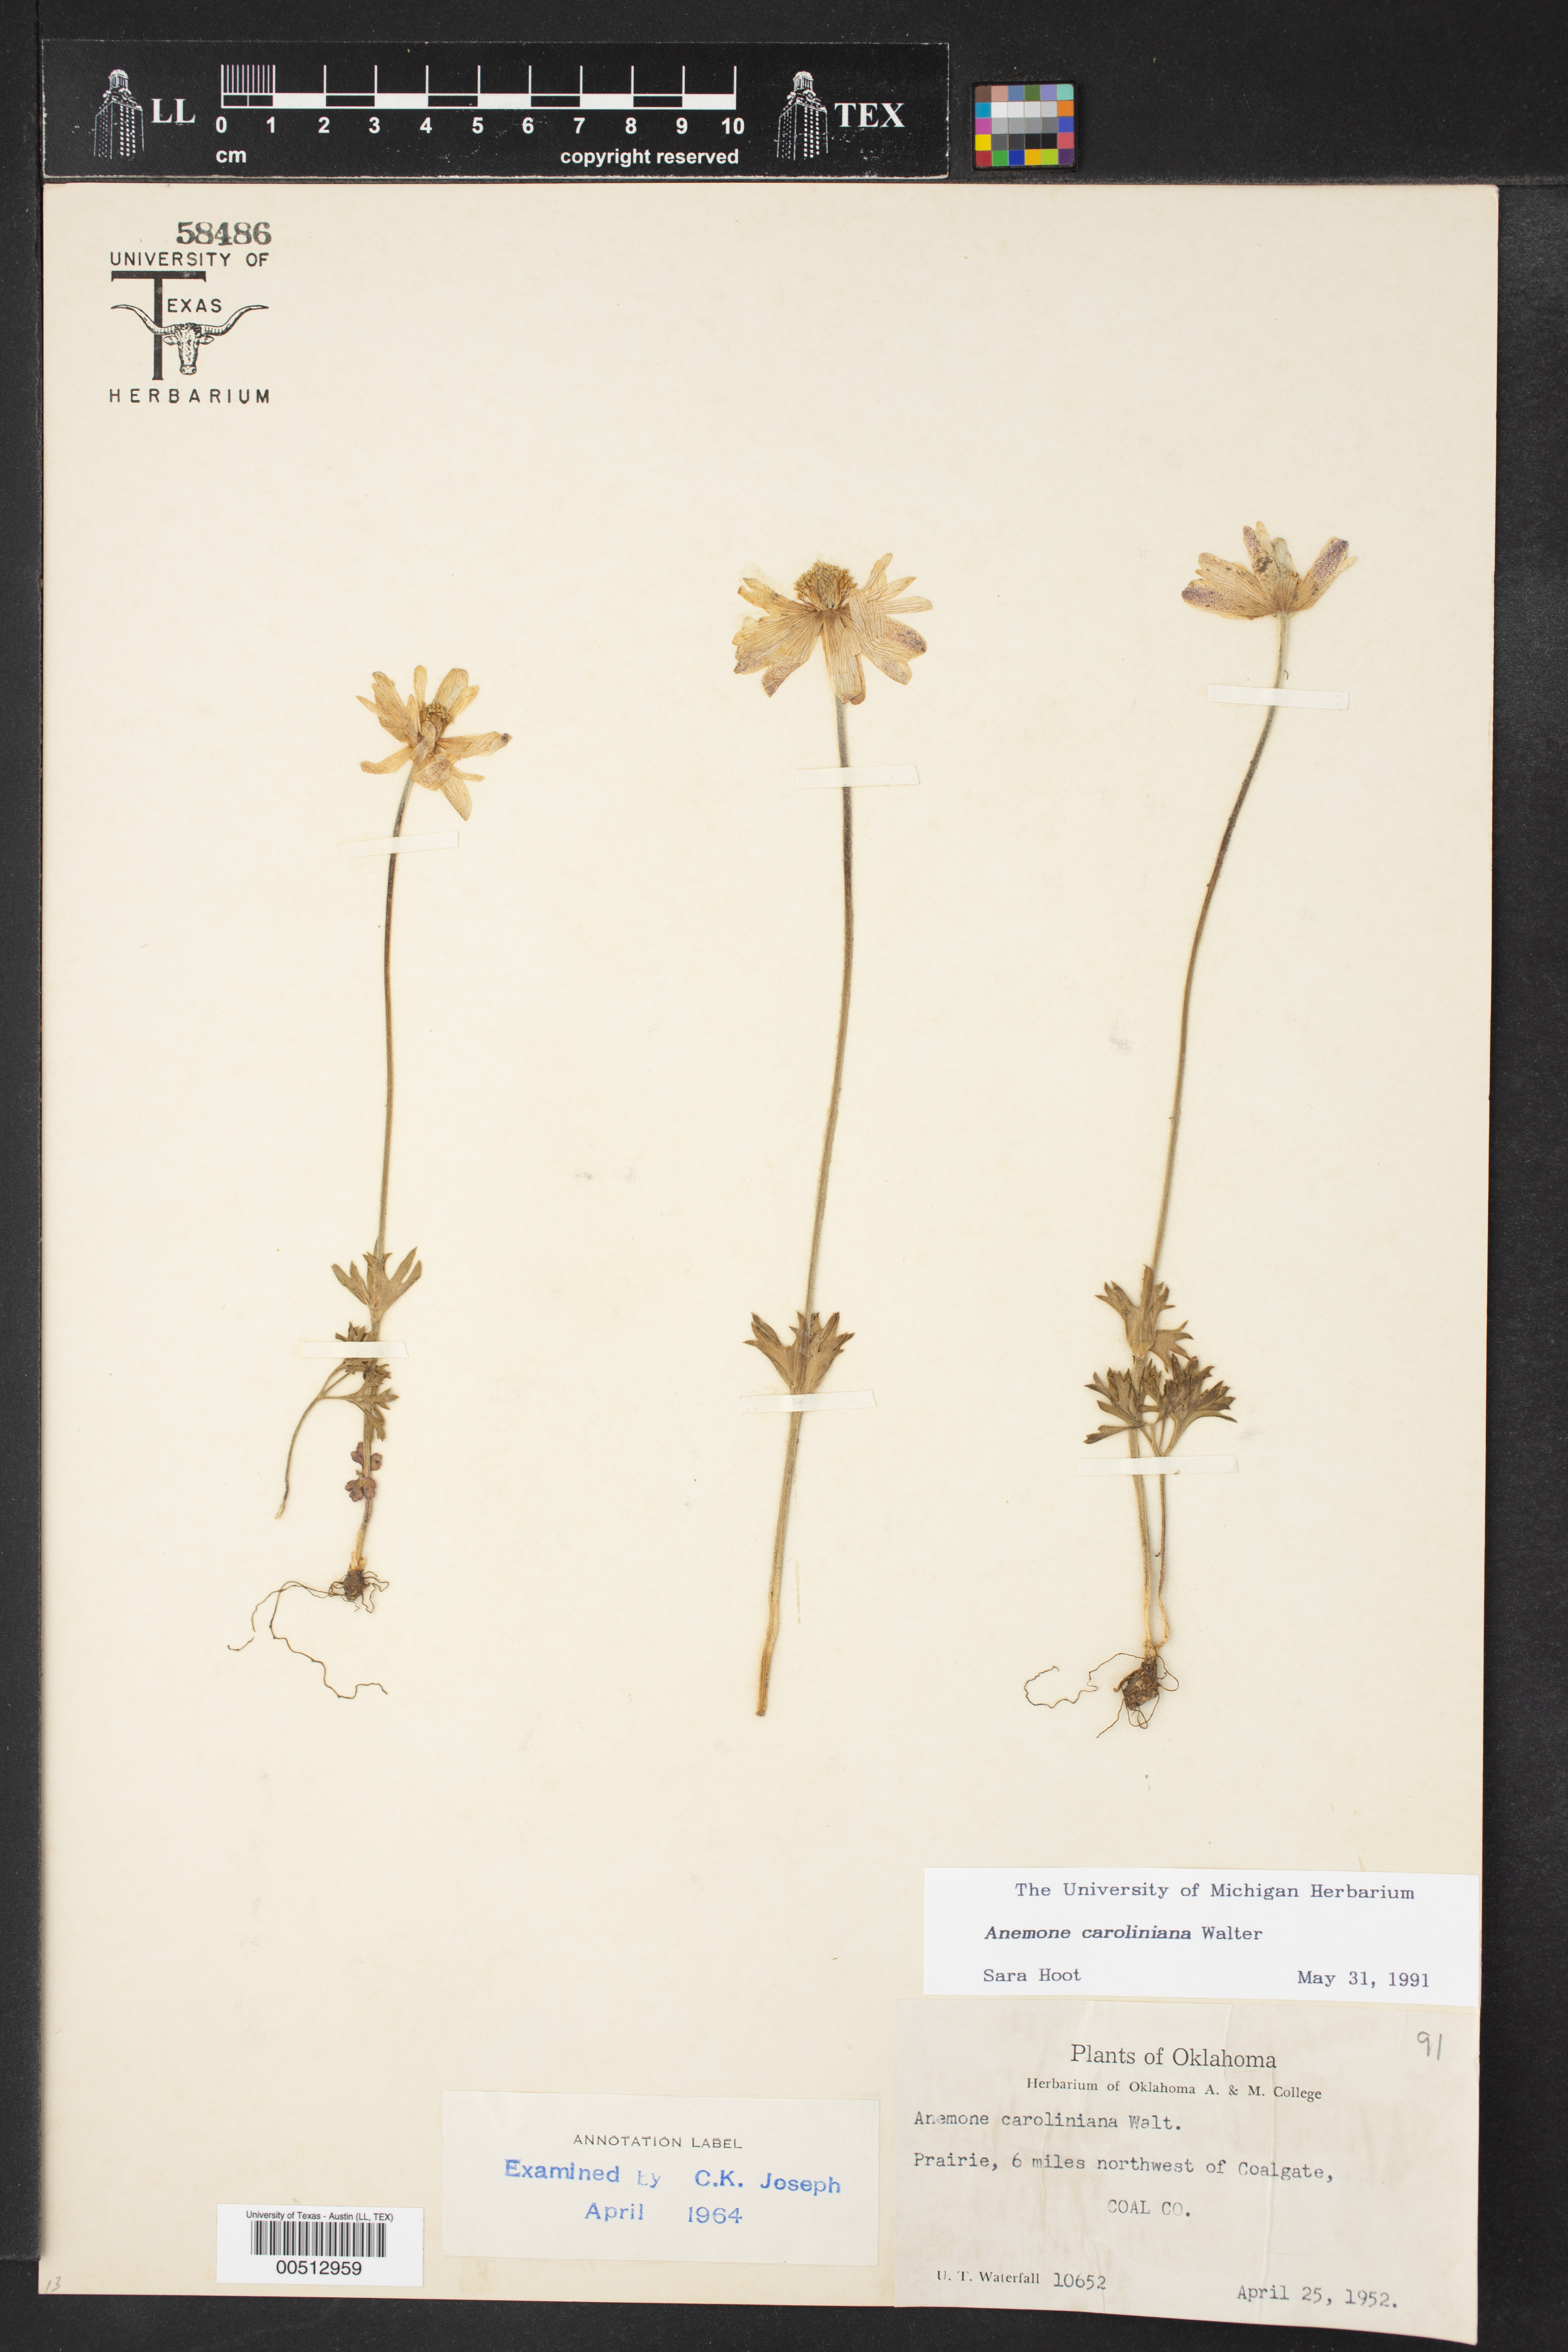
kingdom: Plantae
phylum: Tracheophyta
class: Magnoliopsida
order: Ranunculales
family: Ranunculaceae
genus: Anemone
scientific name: Anemone caroliniana
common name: Carolina anemone
